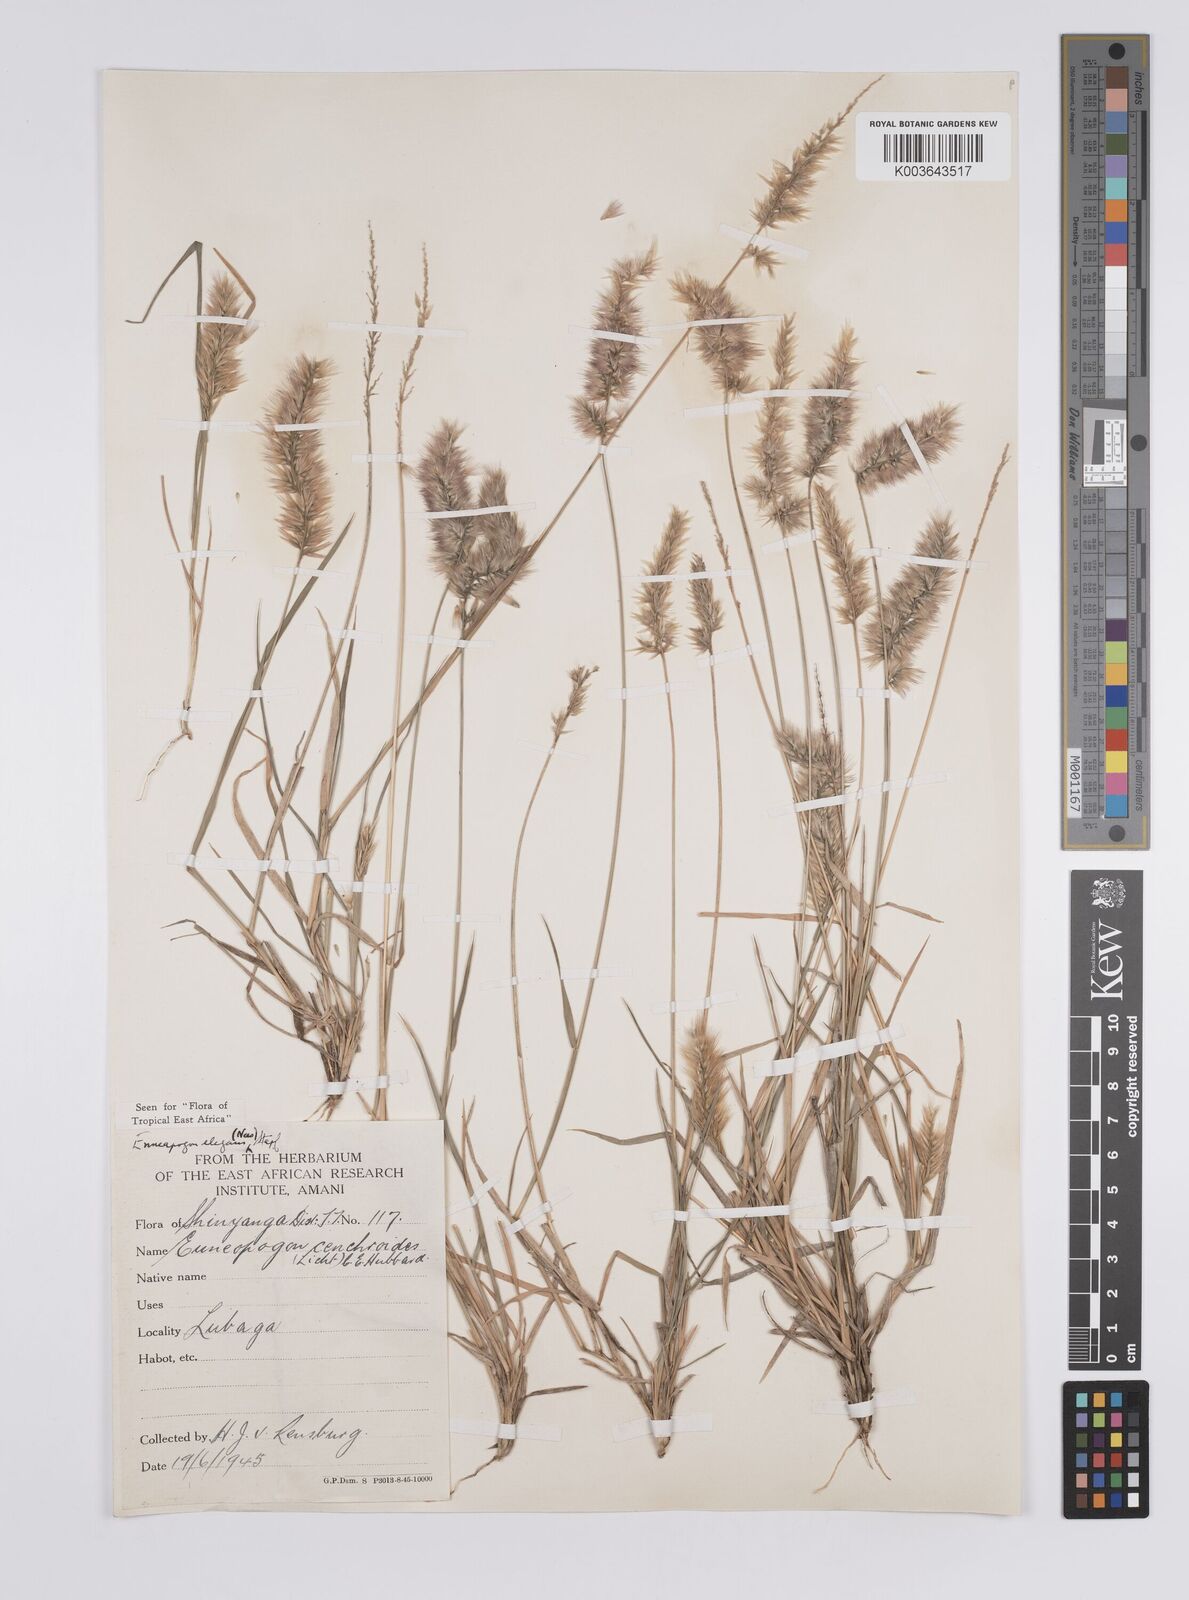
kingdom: Plantae
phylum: Tracheophyta
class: Liliopsida
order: Poales
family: Poaceae
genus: Enneapogon
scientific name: Enneapogon persicus
